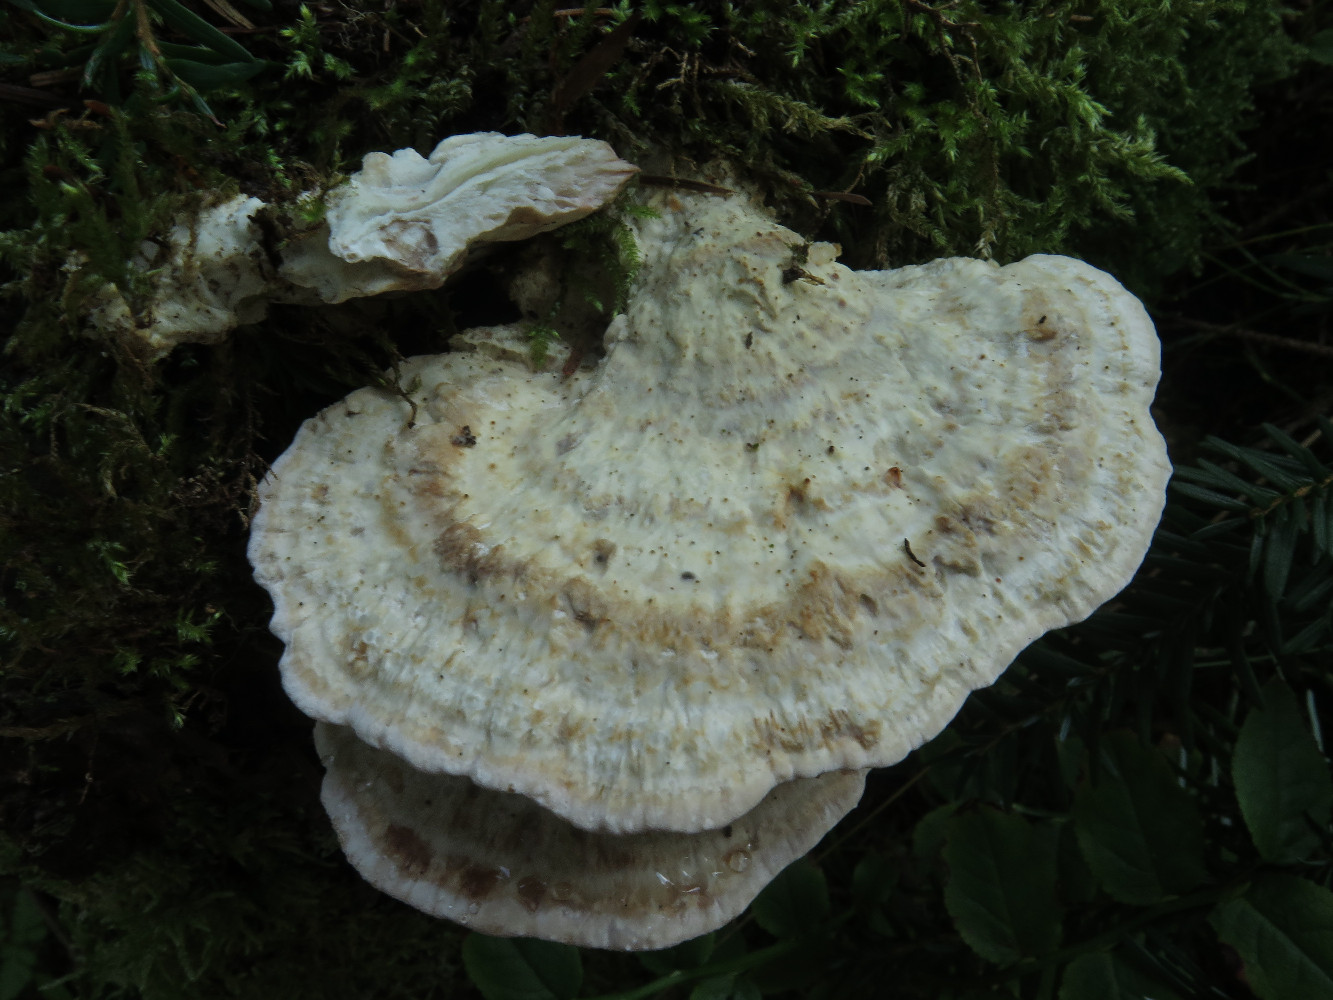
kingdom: Fungi
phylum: Basidiomycota
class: Agaricomycetes
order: Polyporales
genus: Calcipostia
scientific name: Calcipostia guttulata
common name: dråbe-kødporesvamp
